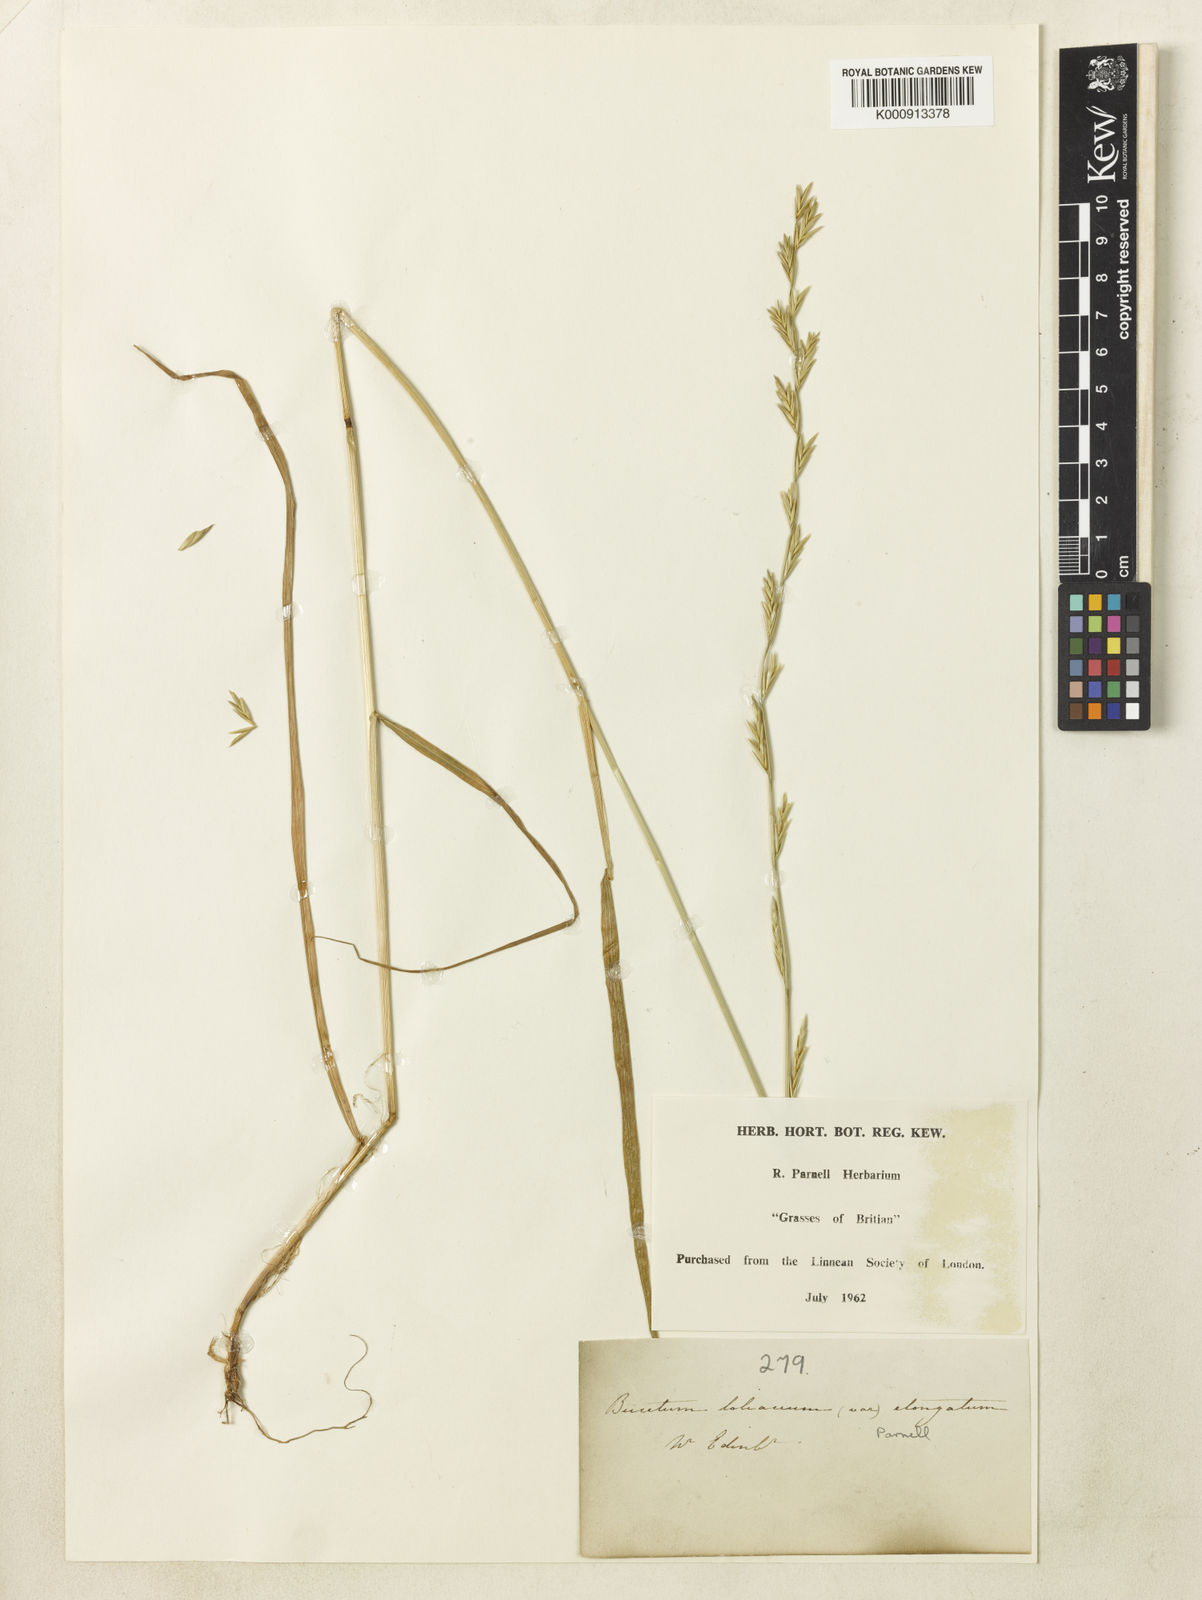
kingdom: Plantae
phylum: Tracheophyta
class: Liliopsida
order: Poales
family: Poaceae
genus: Lolium
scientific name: Lolium elongatum
